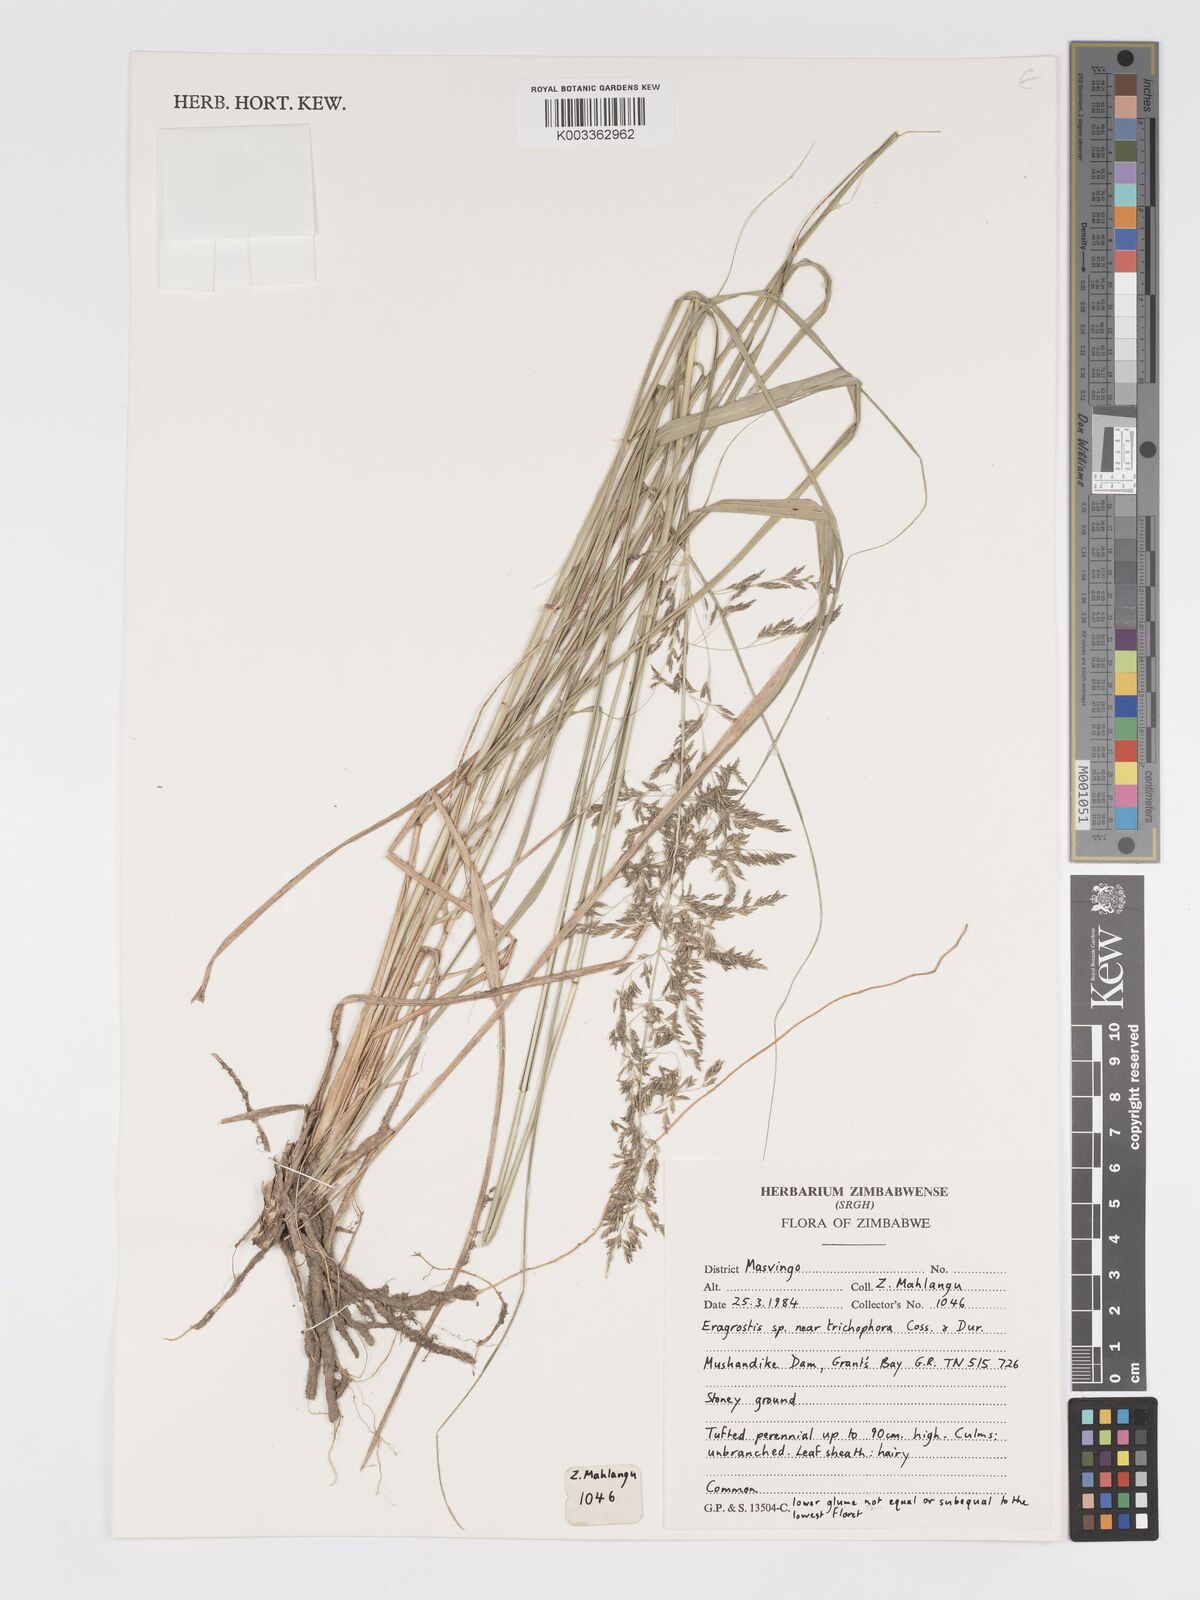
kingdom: Plantae
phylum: Tracheophyta
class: Liliopsida
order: Poales
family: Poaceae
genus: Eragrostis
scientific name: Eragrostis cylindriflora
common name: Cylinderflower lovegrass
